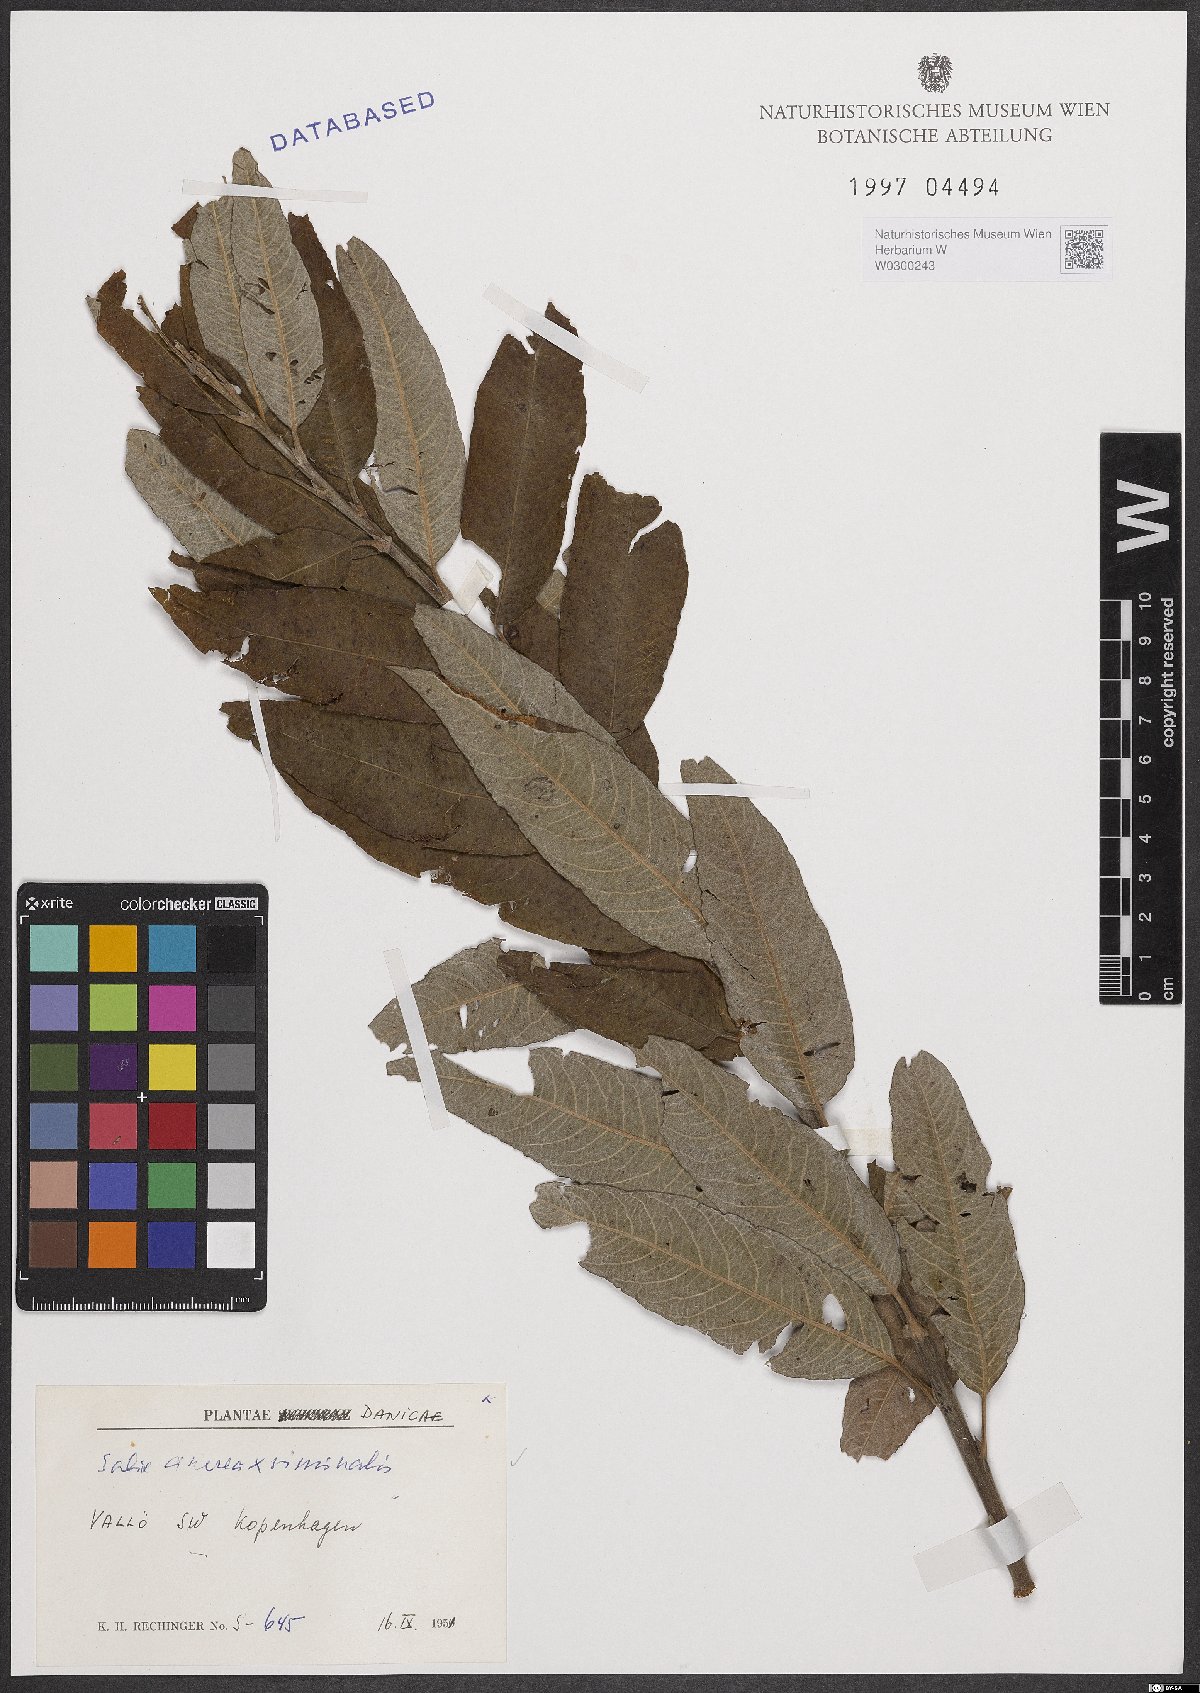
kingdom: Plantae
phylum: Tracheophyta
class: Magnoliopsida
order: Malpighiales
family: Salicaceae
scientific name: Salicaceae
